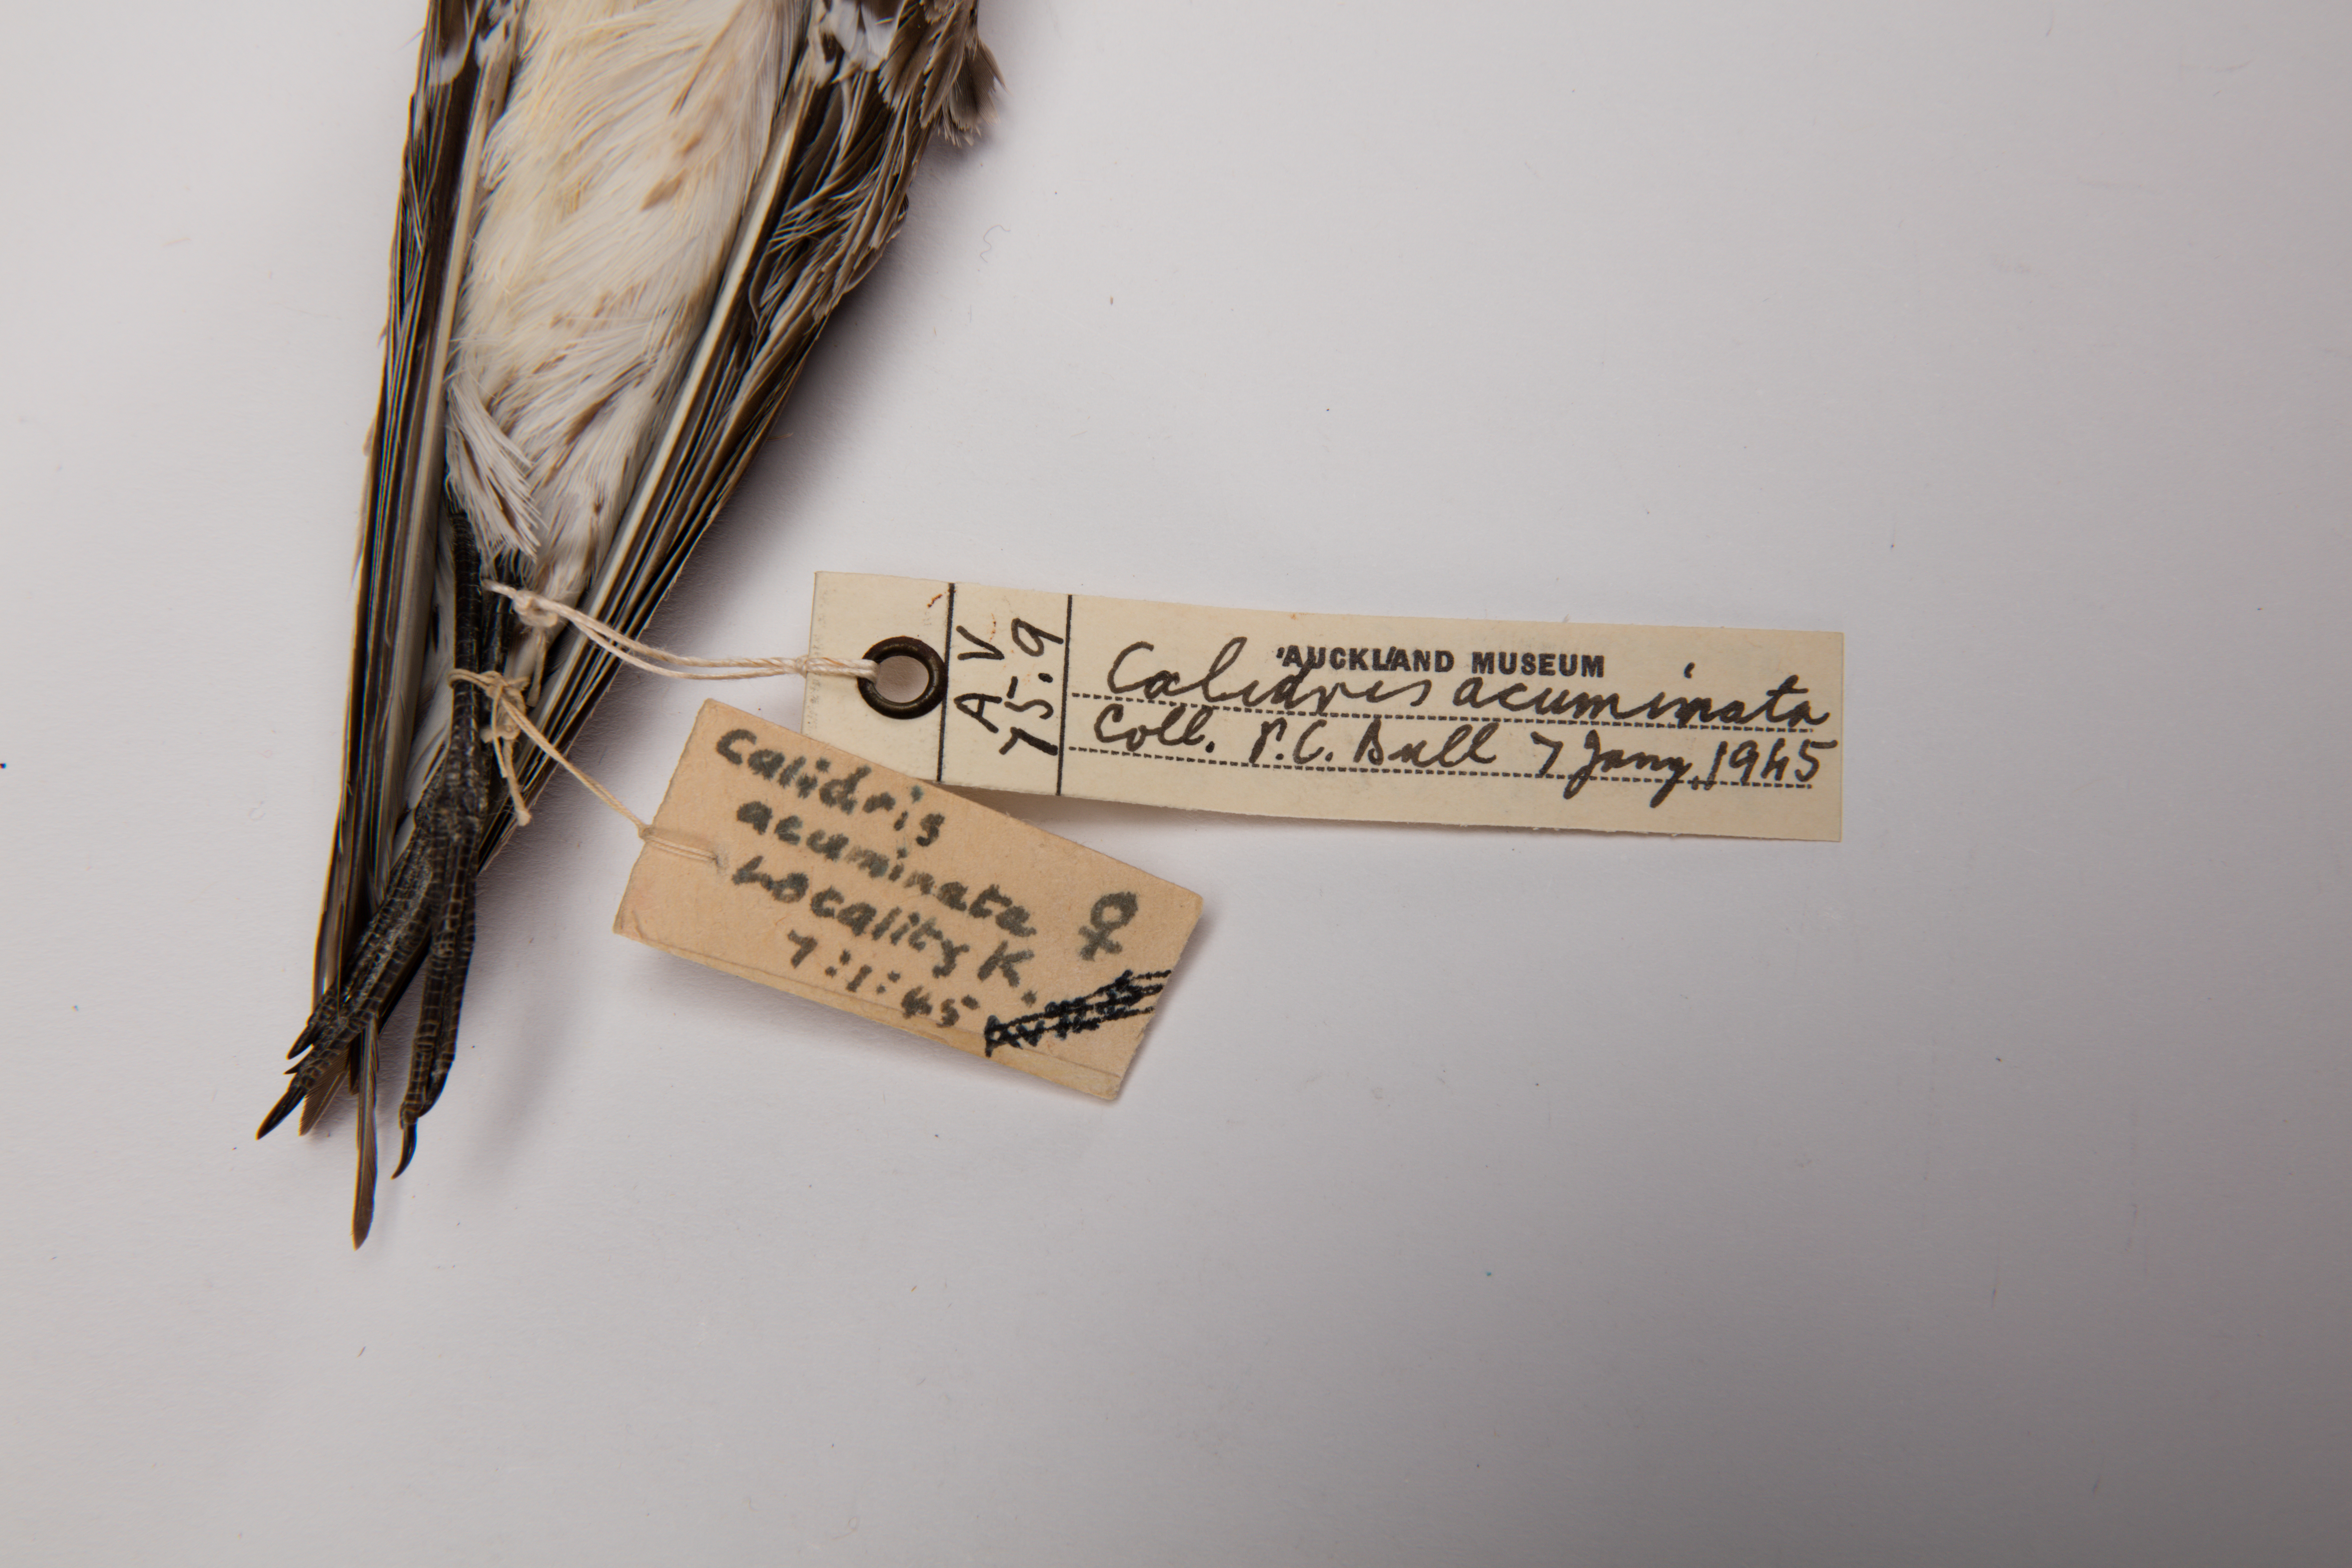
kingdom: Animalia
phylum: Chordata
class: Aves
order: Charadriiformes
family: Scolopacidae
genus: Calidris
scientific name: Calidris acuminata
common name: Sharp-tailed sandpiper
